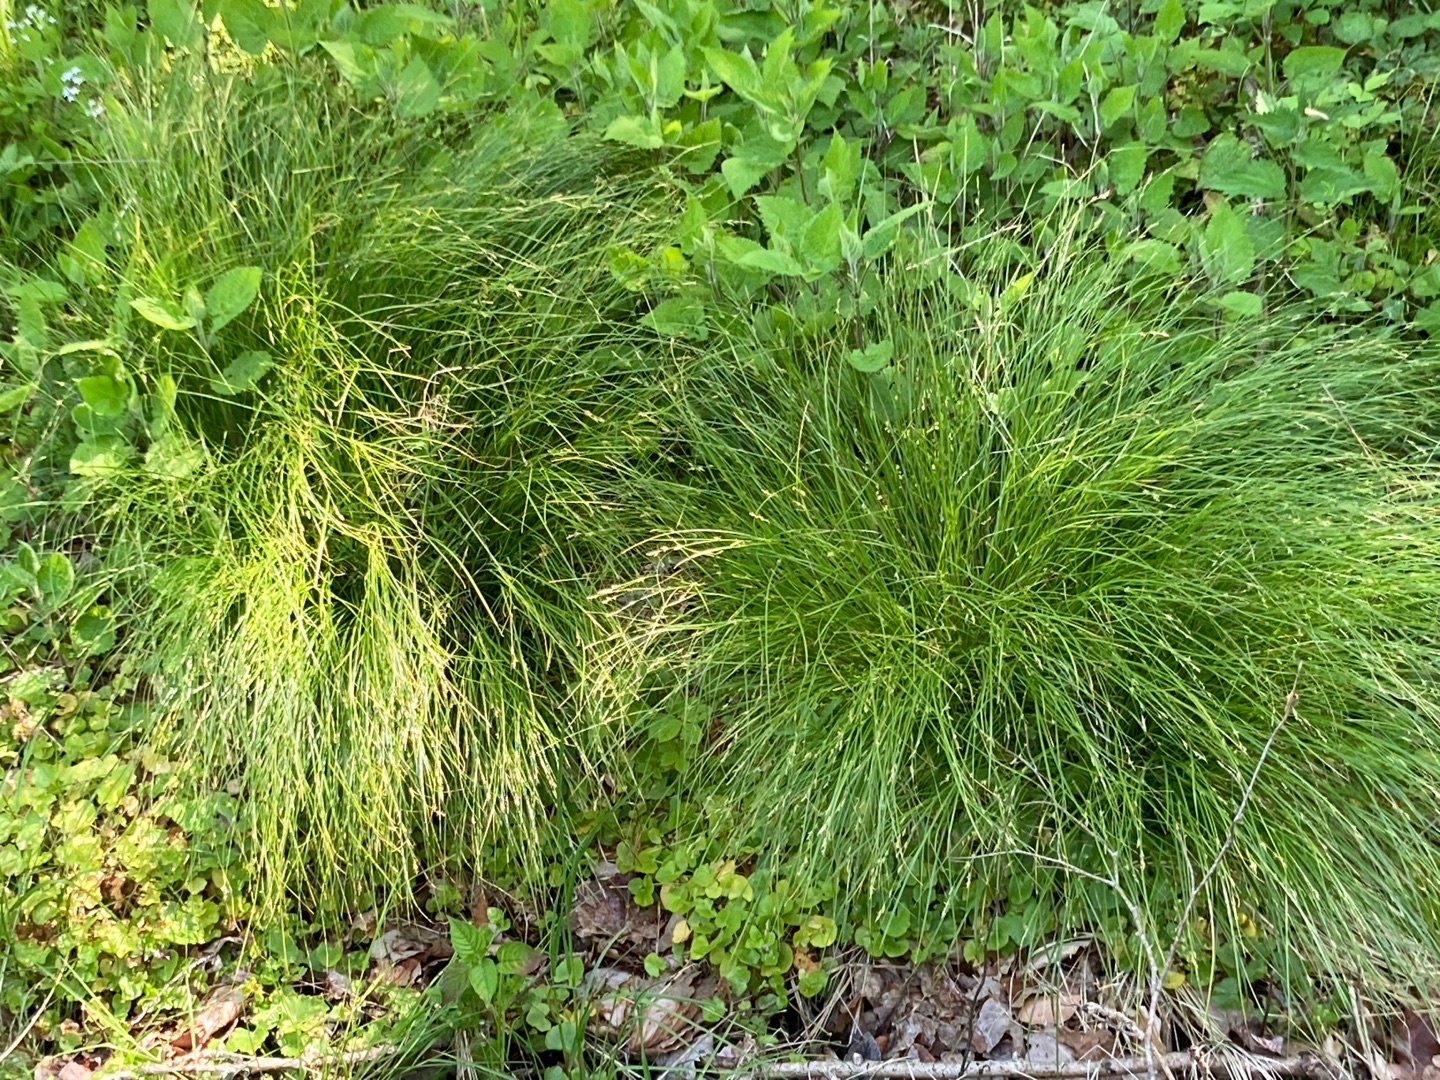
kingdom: Plantae
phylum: Tracheophyta
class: Liliopsida
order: Poales
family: Cyperaceae
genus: Carex
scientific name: Carex remota
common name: Akselblomstret star
